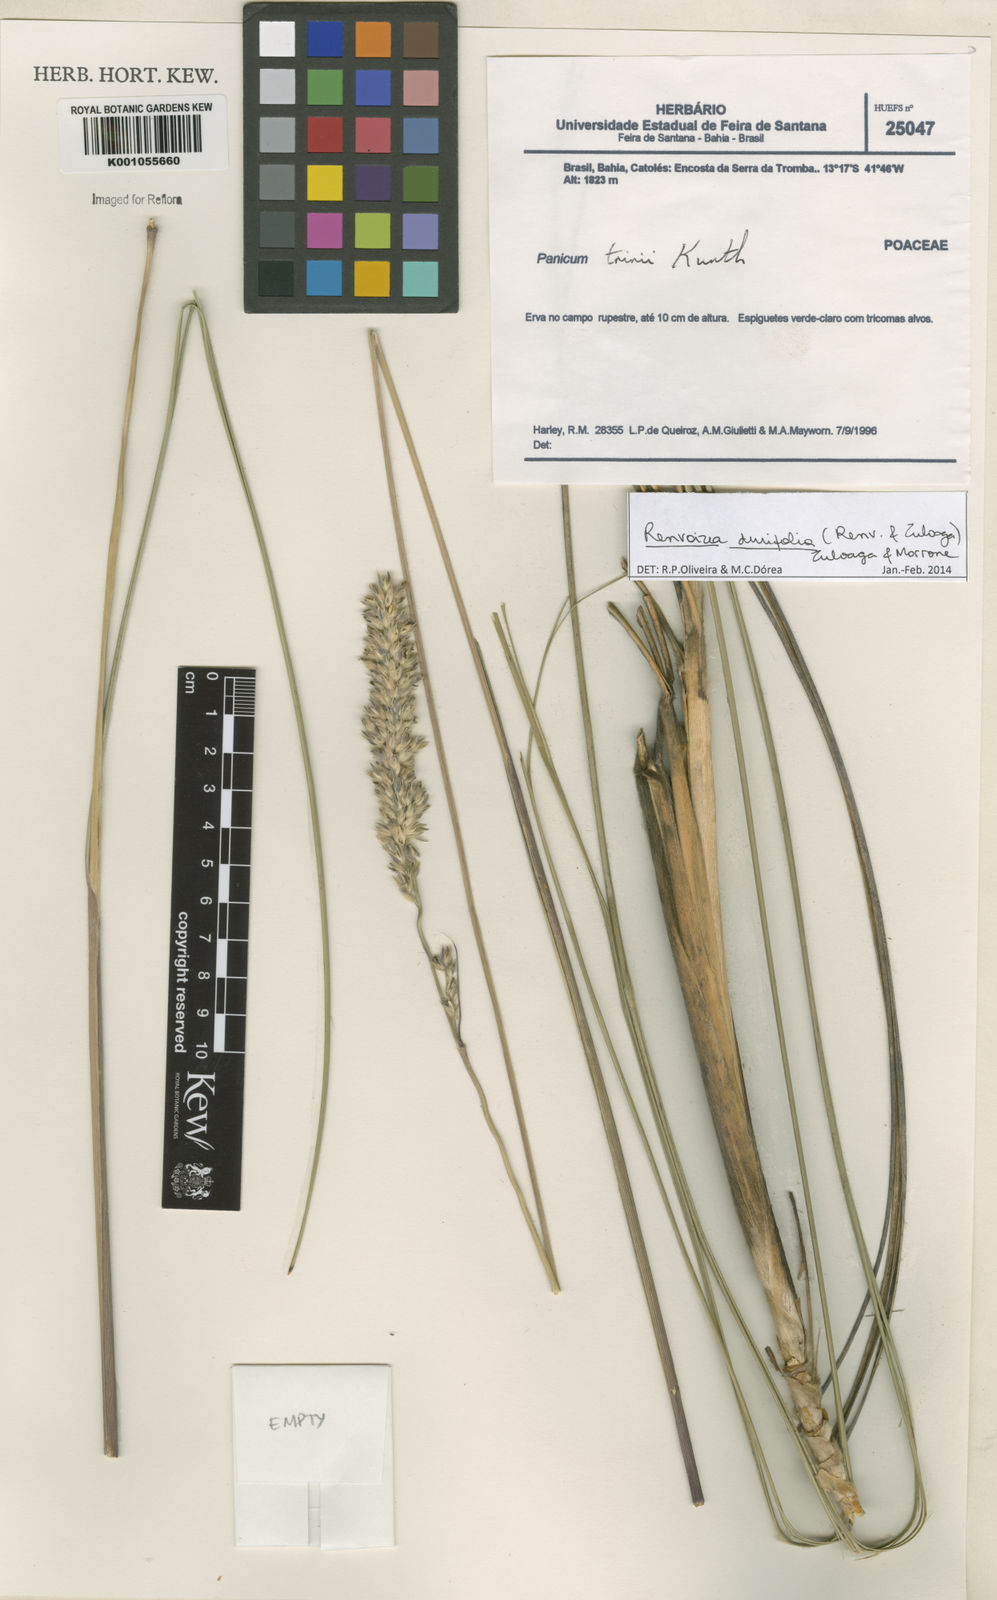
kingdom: Plantae
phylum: Tracheophyta
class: Liliopsida
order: Poales
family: Poaceae
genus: Renvoizea
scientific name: Renvoizea durifolia
